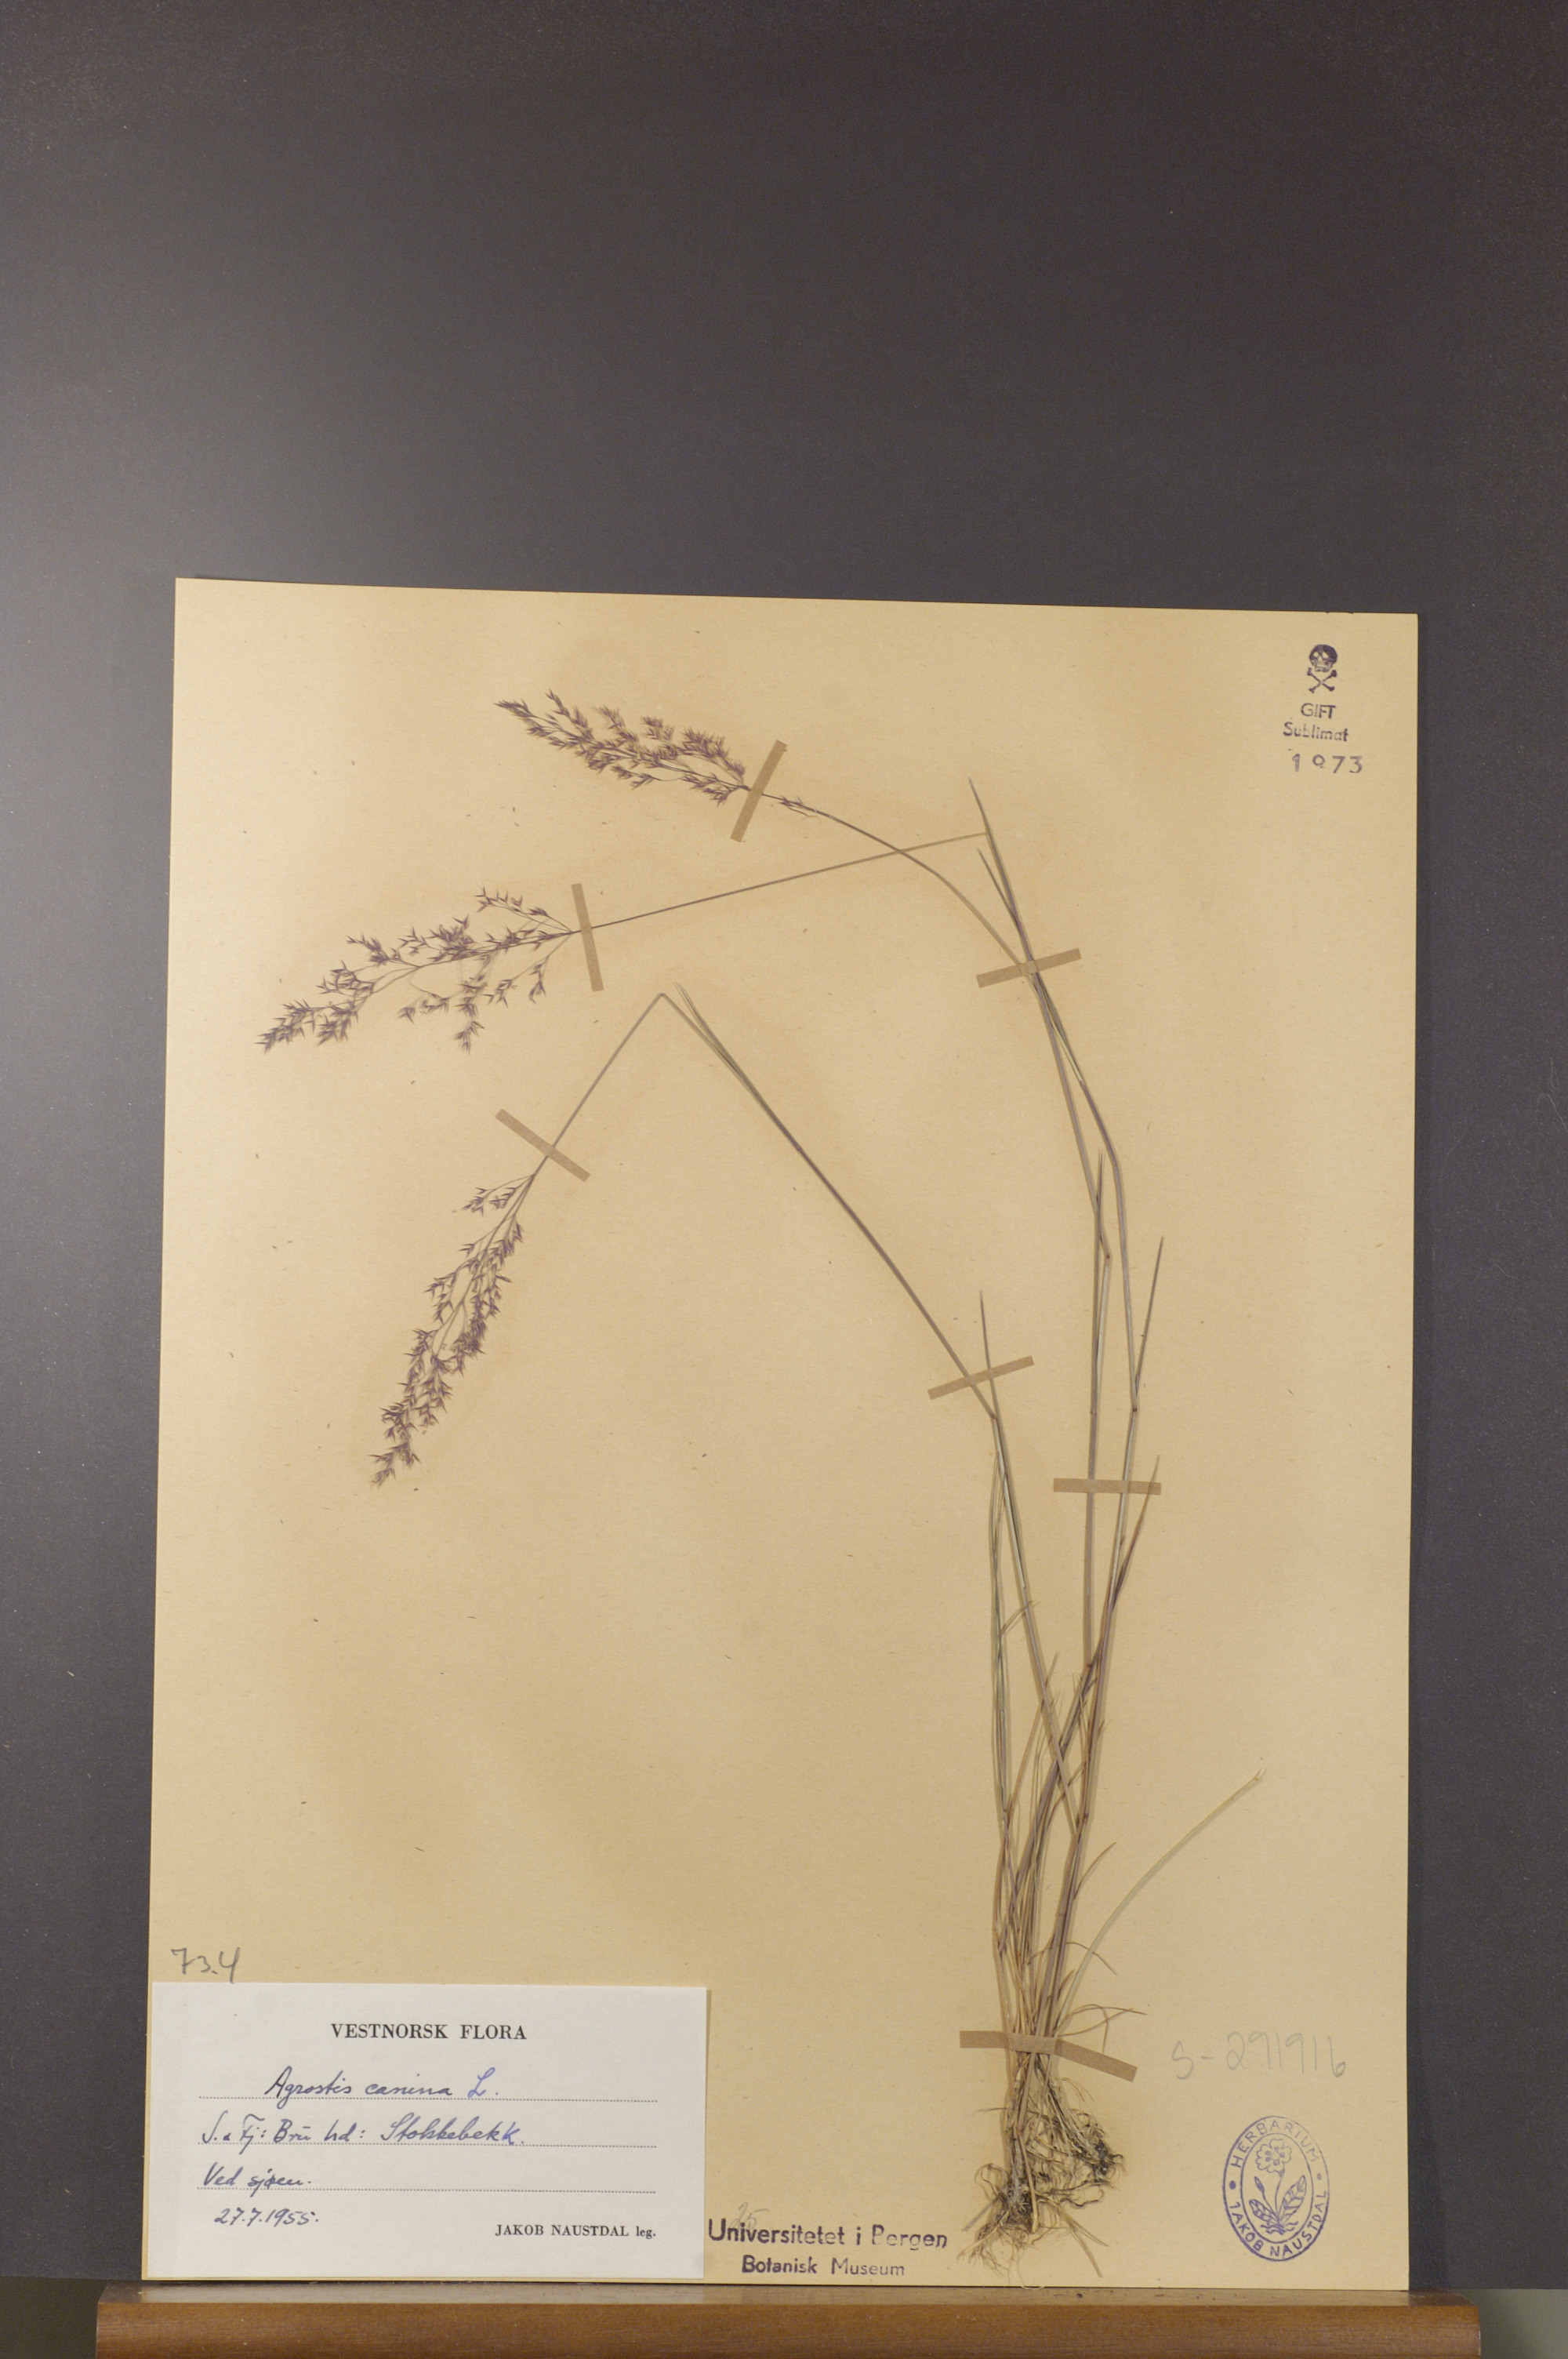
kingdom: Plantae
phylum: Tracheophyta
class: Liliopsida
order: Poales
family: Poaceae
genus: Agrostis
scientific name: Agrostis canina
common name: Velvet bent
